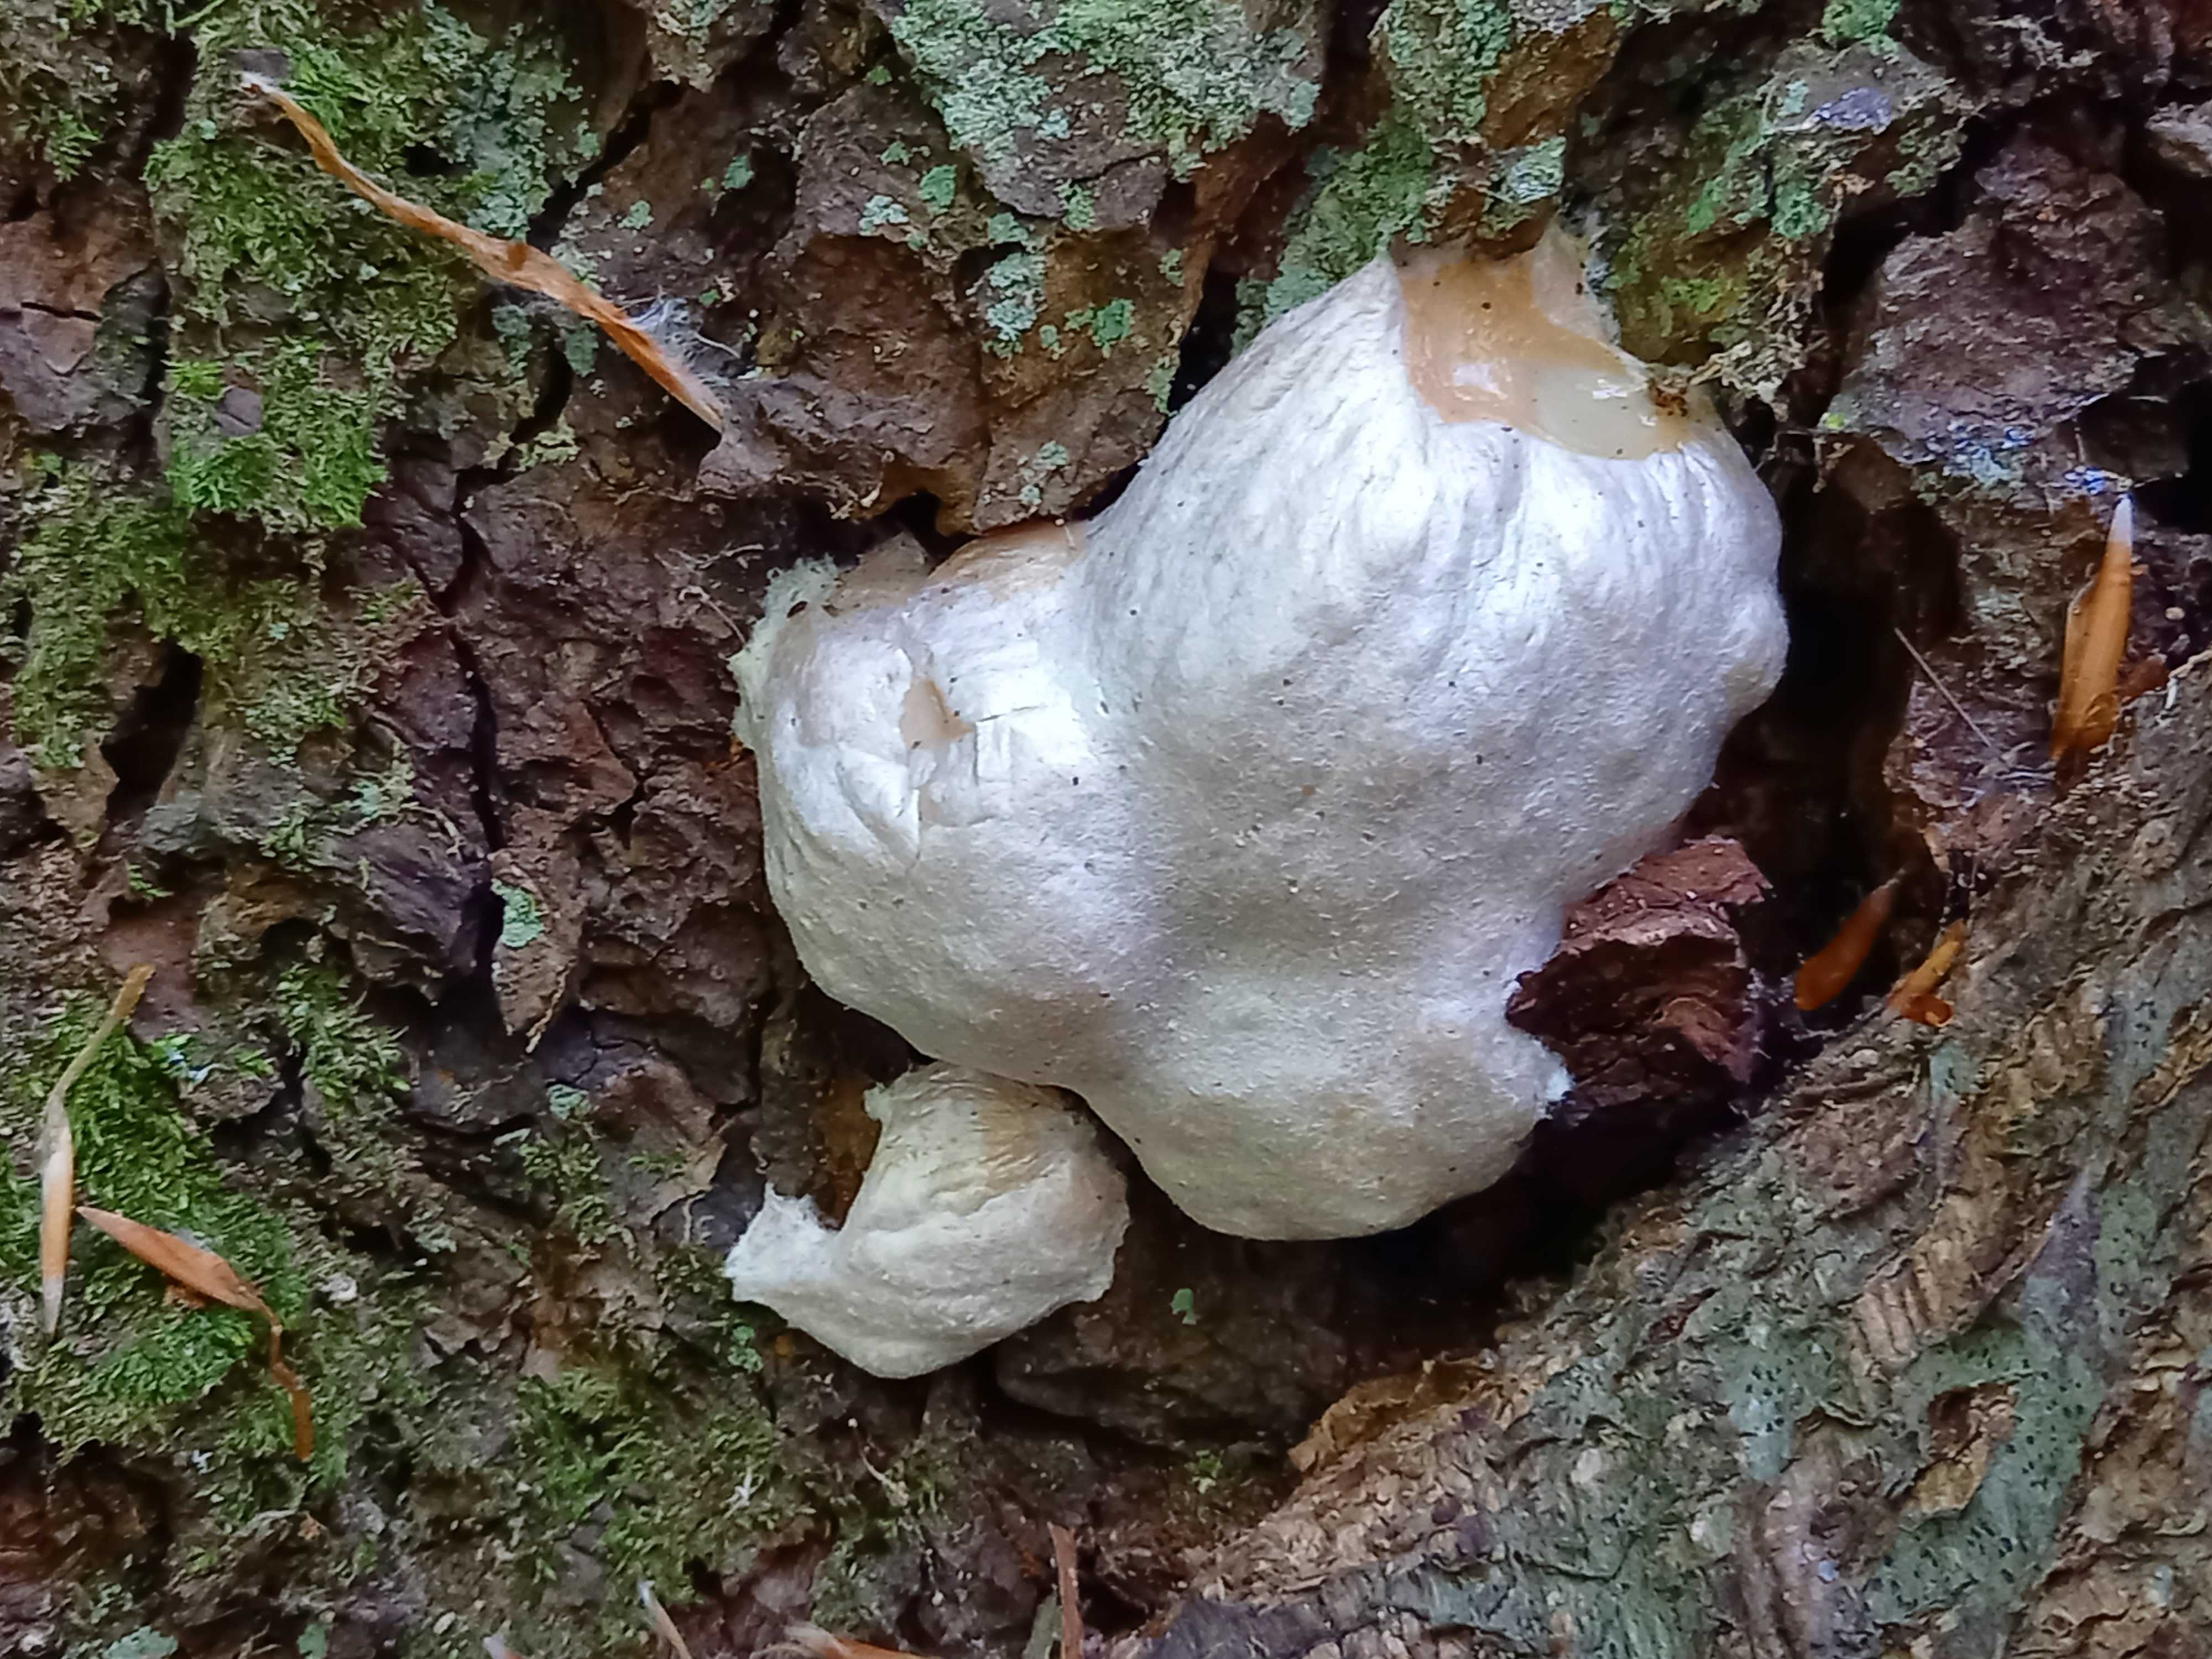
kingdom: Protozoa
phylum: Mycetozoa
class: Myxomycetes
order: Cribrariales
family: Tubiferaceae
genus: Reticularia
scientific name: Reticularia lycoperdon
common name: skinnende støvpude
